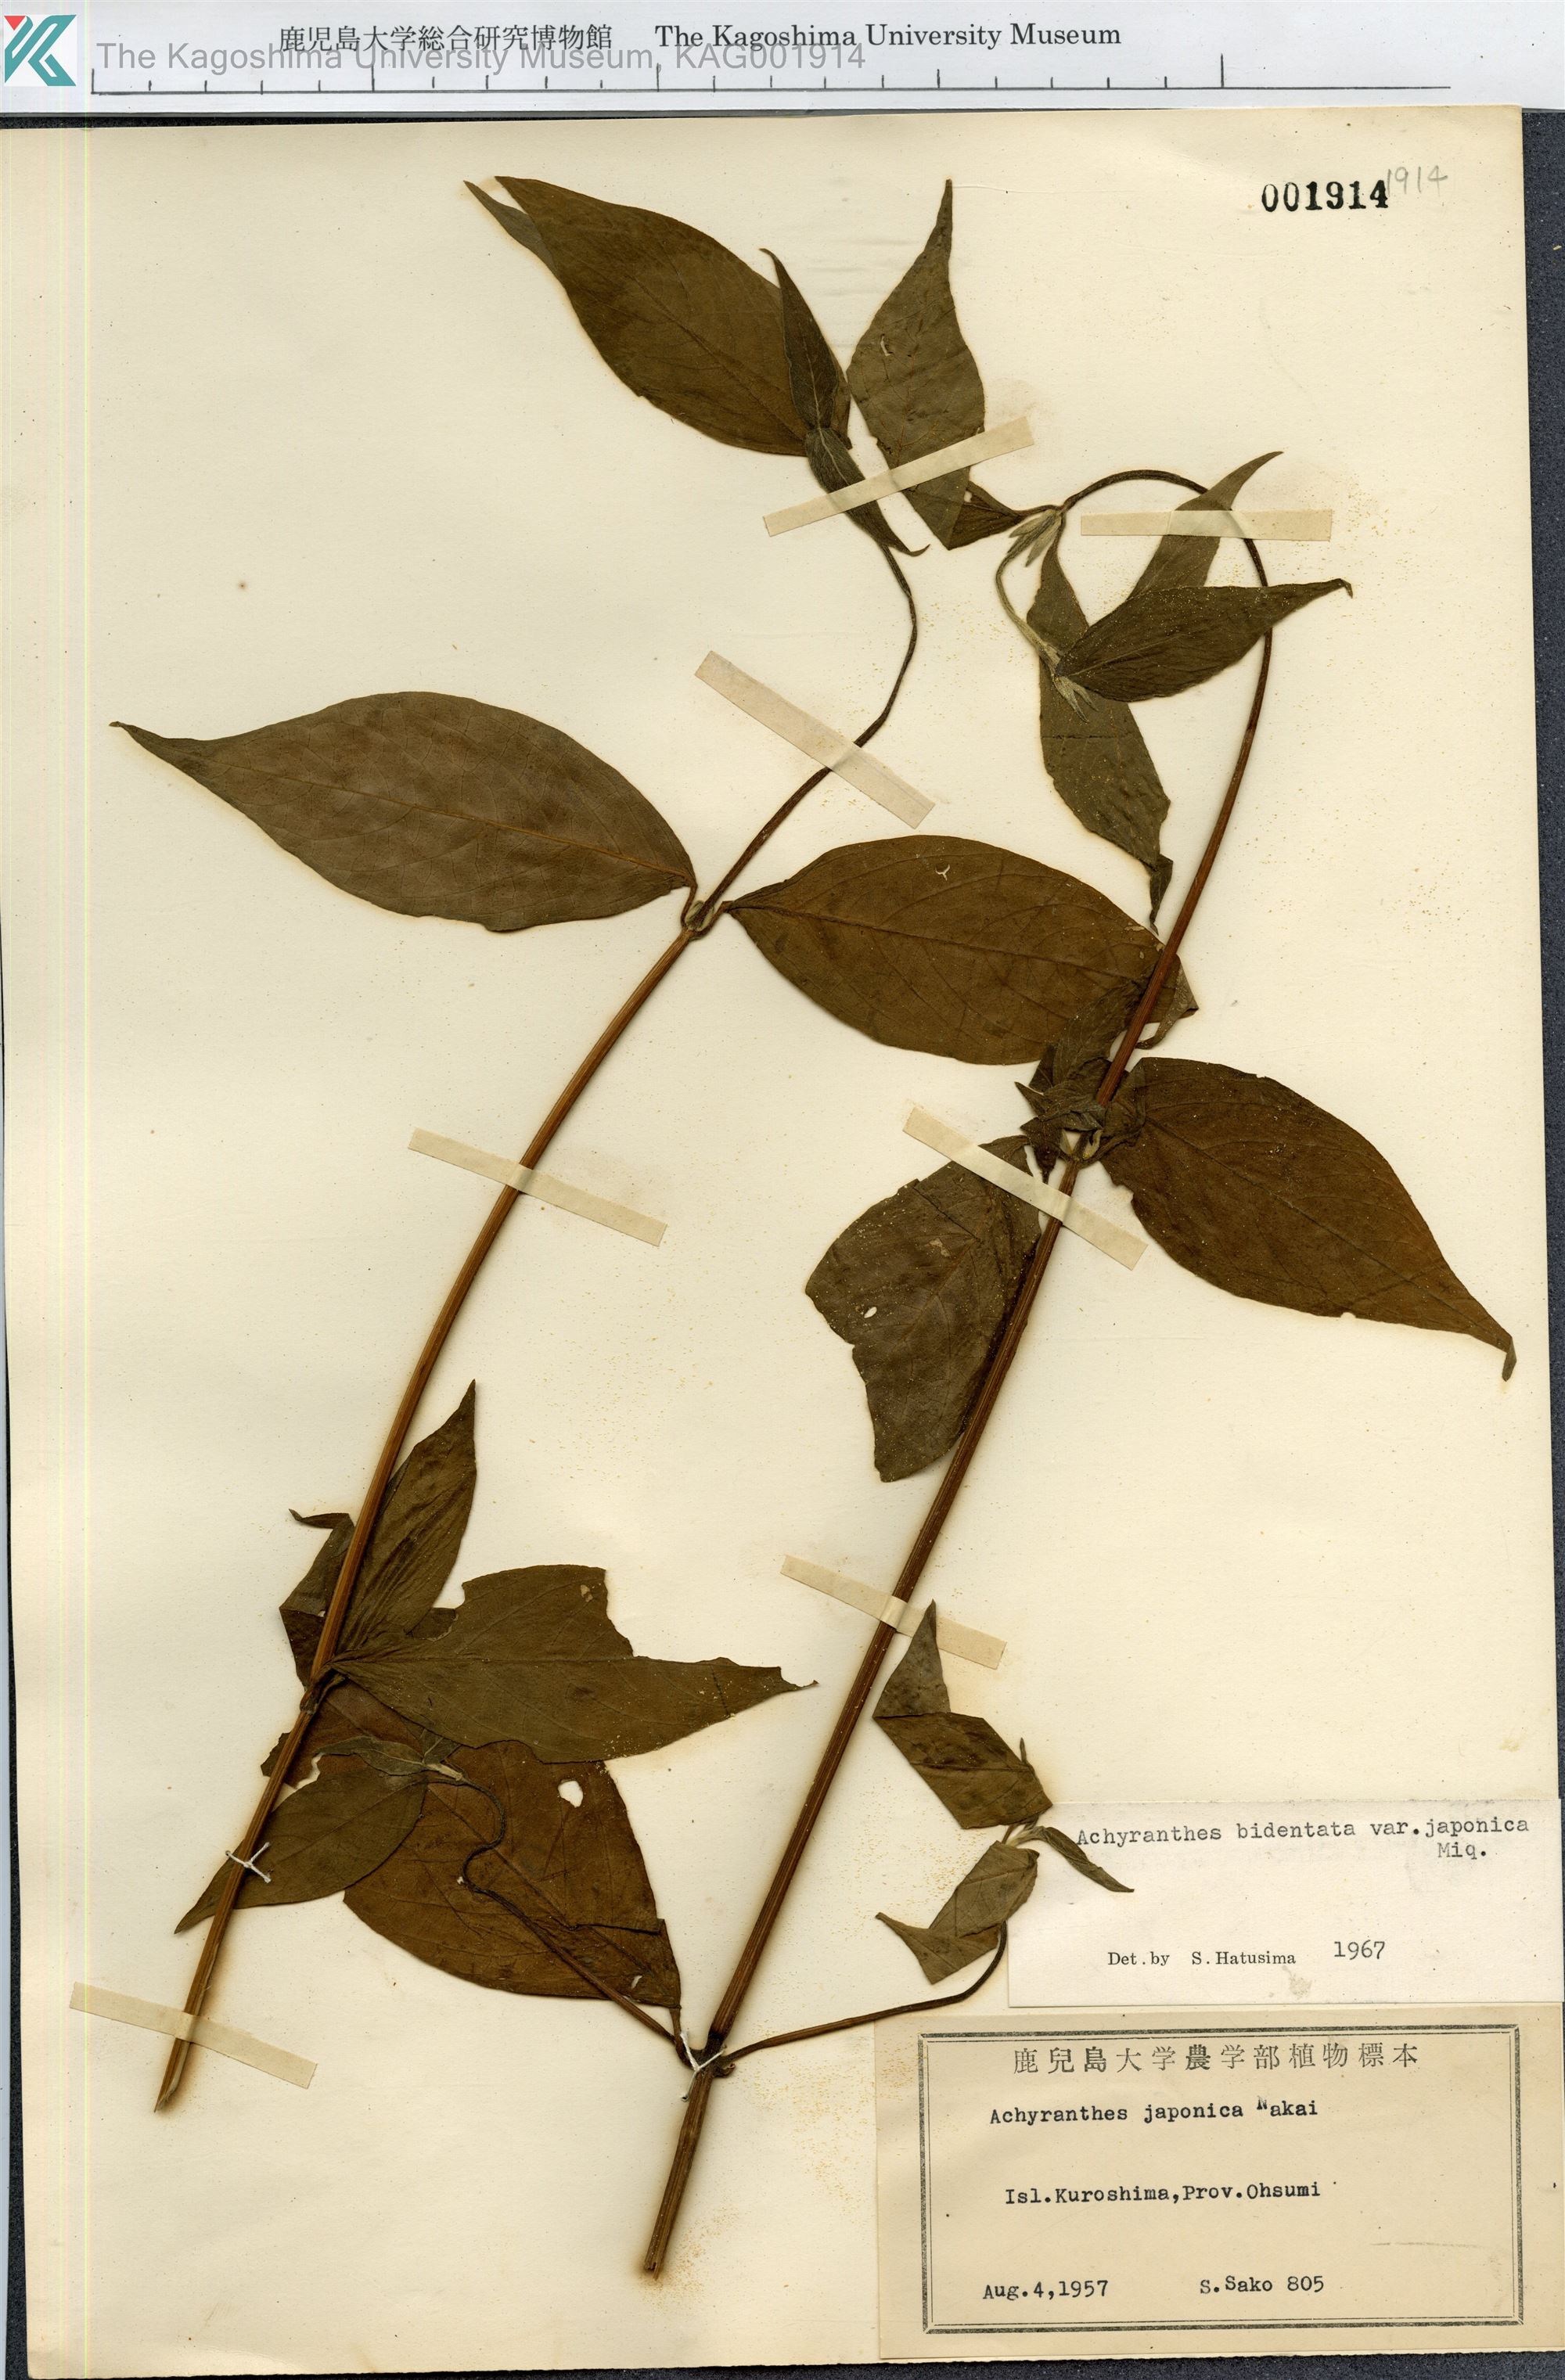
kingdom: Plantae
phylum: Tracheophyta
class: Magnoliopsida
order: Caryophyllales
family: Amaranthaceae
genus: Achyranthes
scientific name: Achyranthes bidentata
